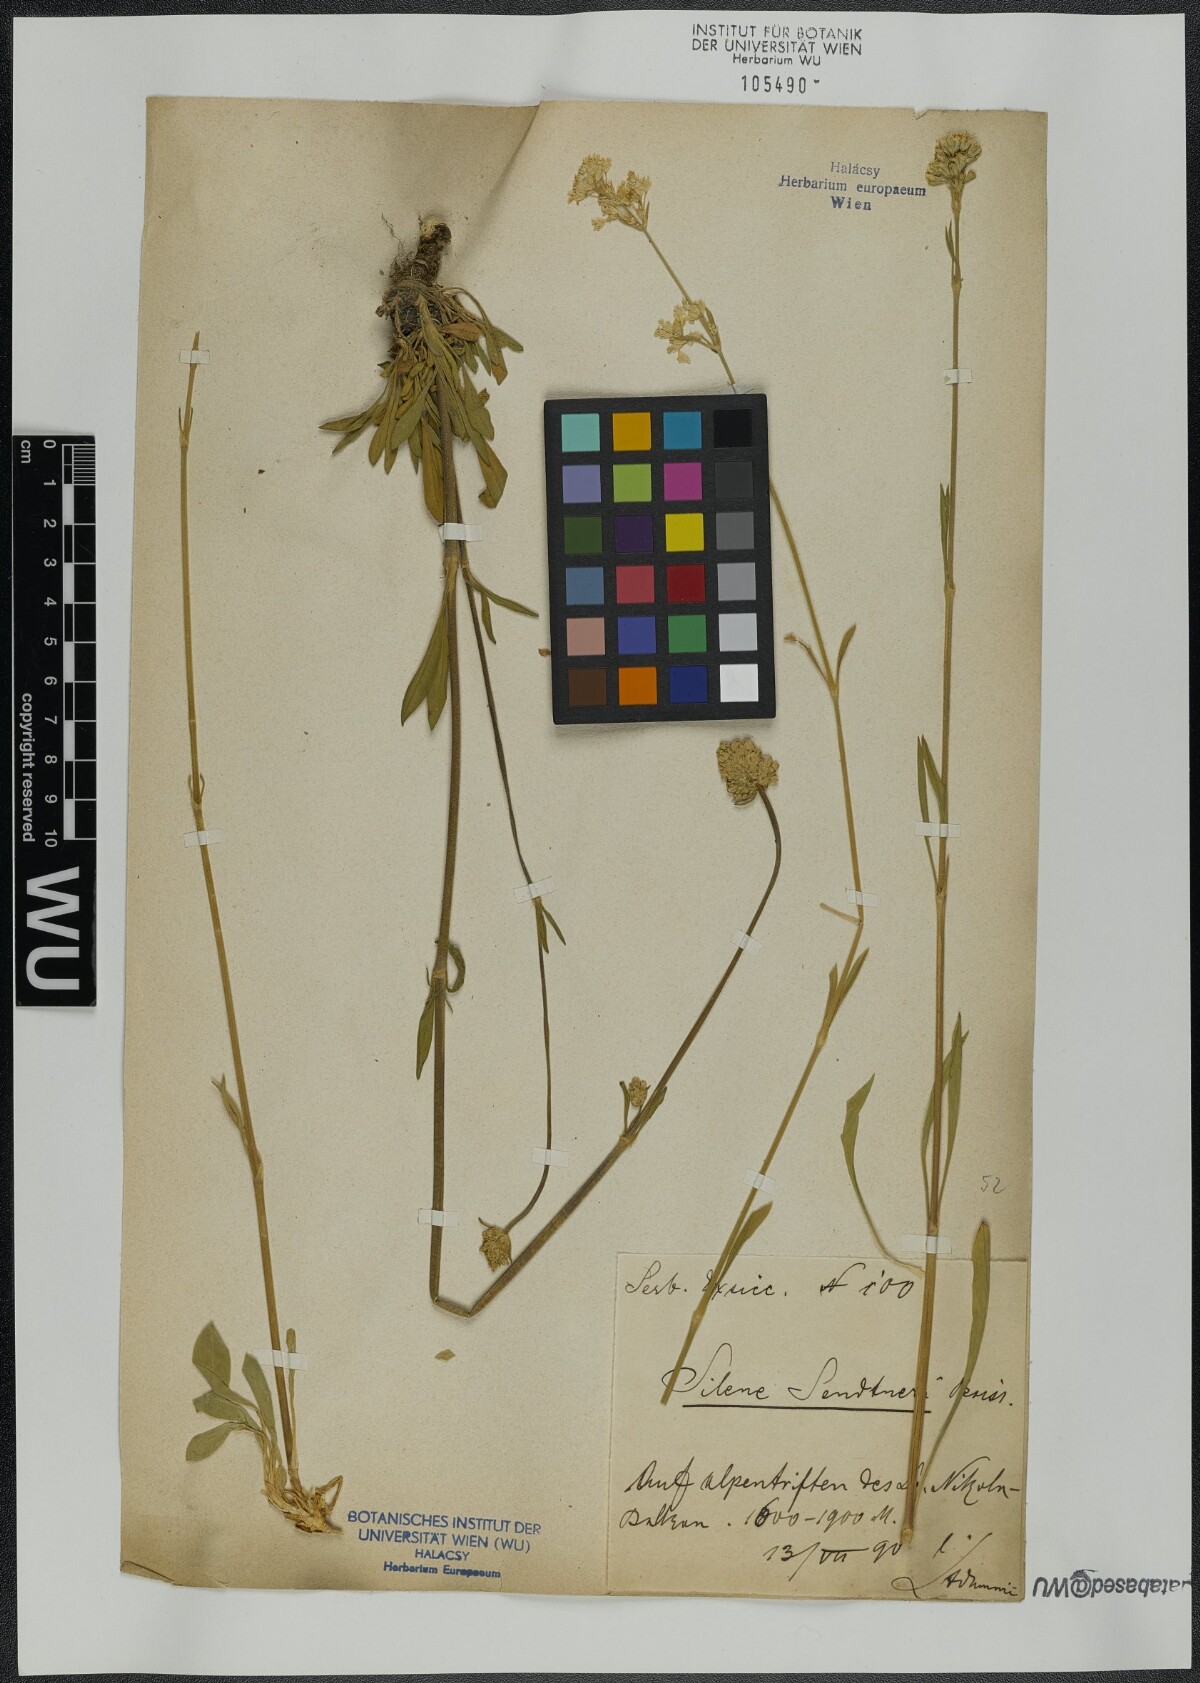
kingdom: Plantae
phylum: Tracheophyta
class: Magnoliopsida
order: Caryophyllales
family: Caryophyllaceae
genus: Silene
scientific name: Silene sendtneri
